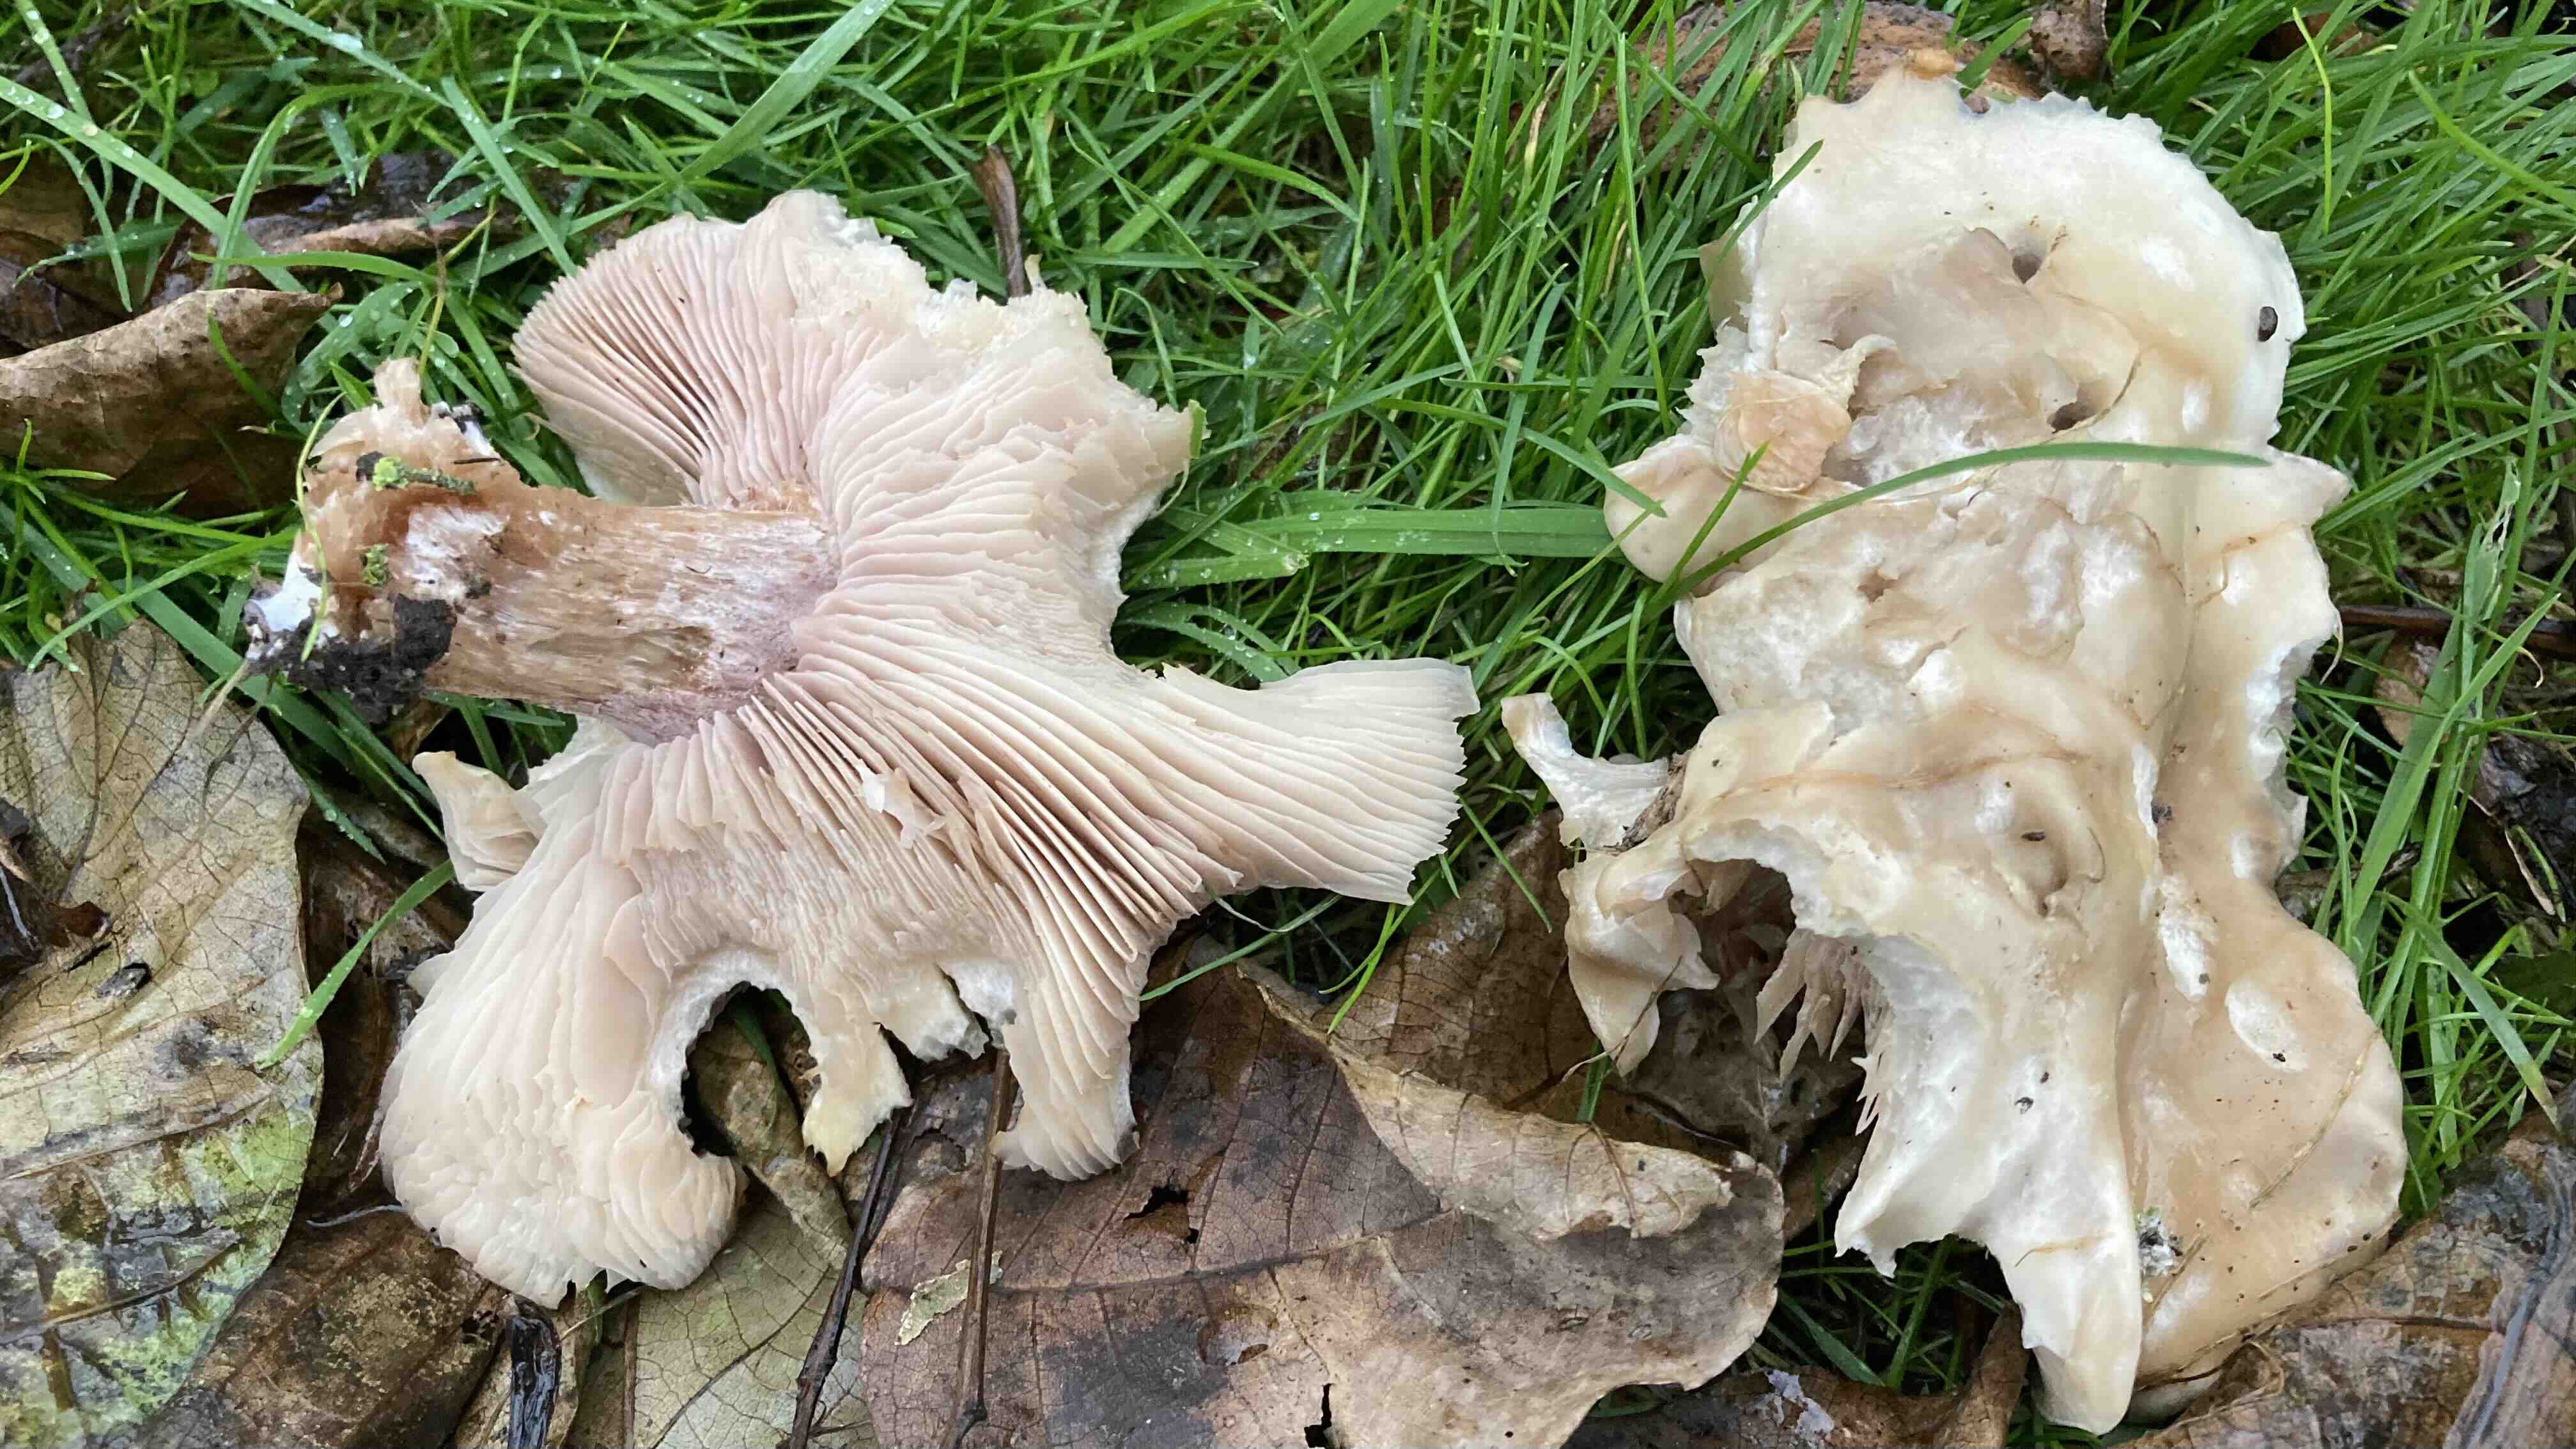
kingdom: Fungi
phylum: Basidiomycota
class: Agaricomycetes
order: Agaricales
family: Tricholomataceae
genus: Lepista
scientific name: Lepista personata
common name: bleg hekseringshat
